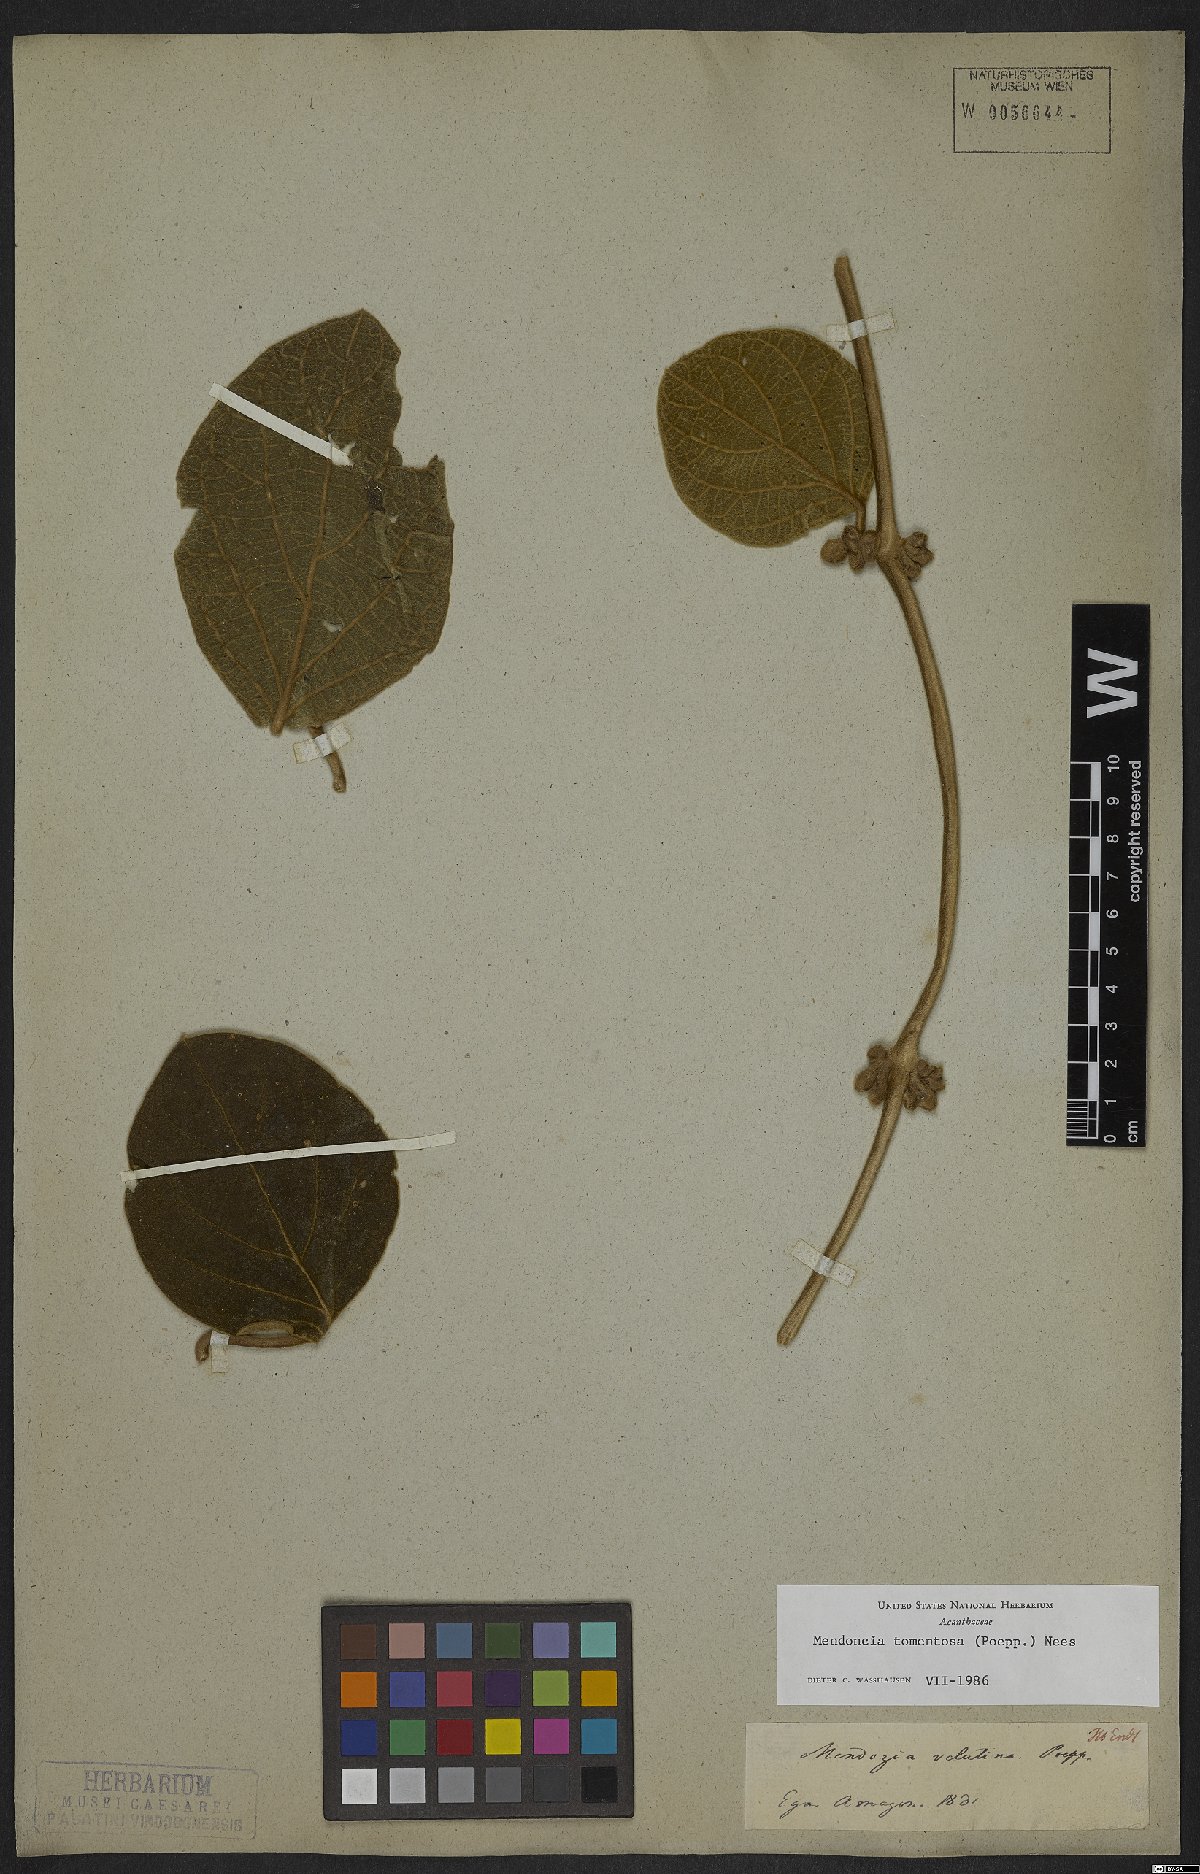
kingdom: Plantae
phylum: Tracheophyta
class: Magnoliopsida
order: Lamiales
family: Acanthaceae
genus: Mendoncia
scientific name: Mendoncia tomentosa
